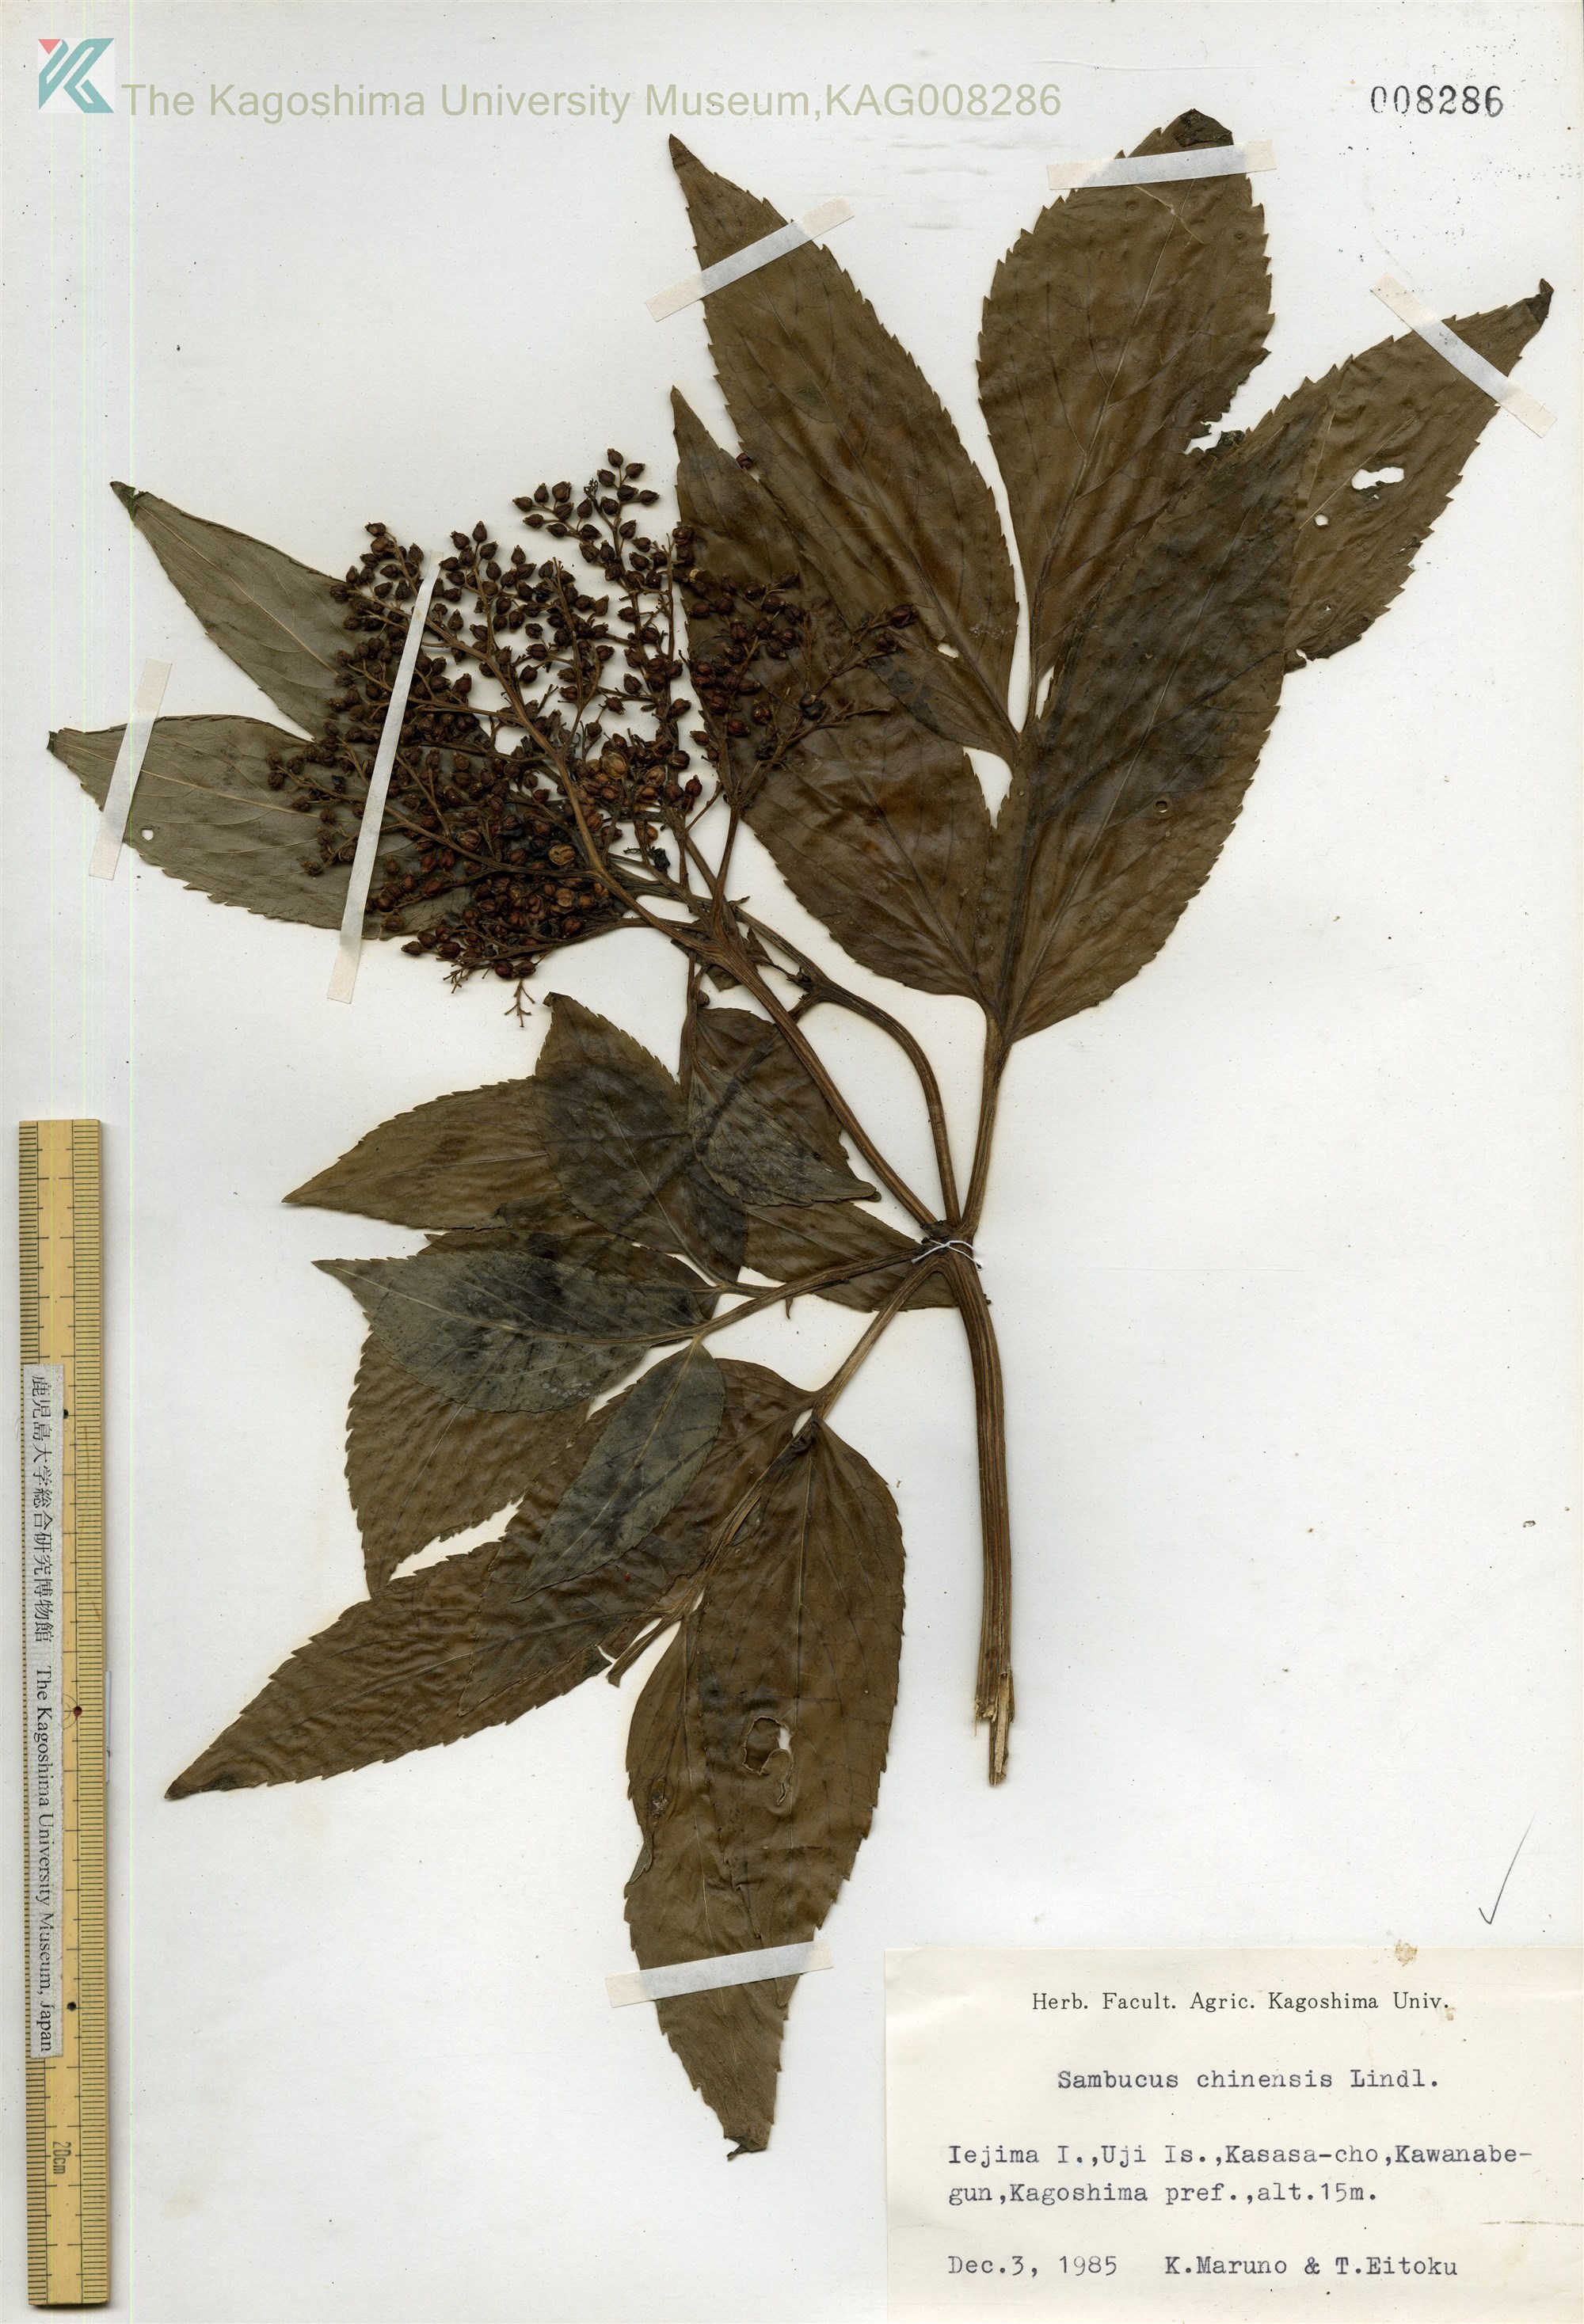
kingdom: Plantae
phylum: Tracheophyta
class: Magnoliopsida
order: Dipsacales
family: Viburnaceae
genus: Sambucus
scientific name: Sambucus javanica
